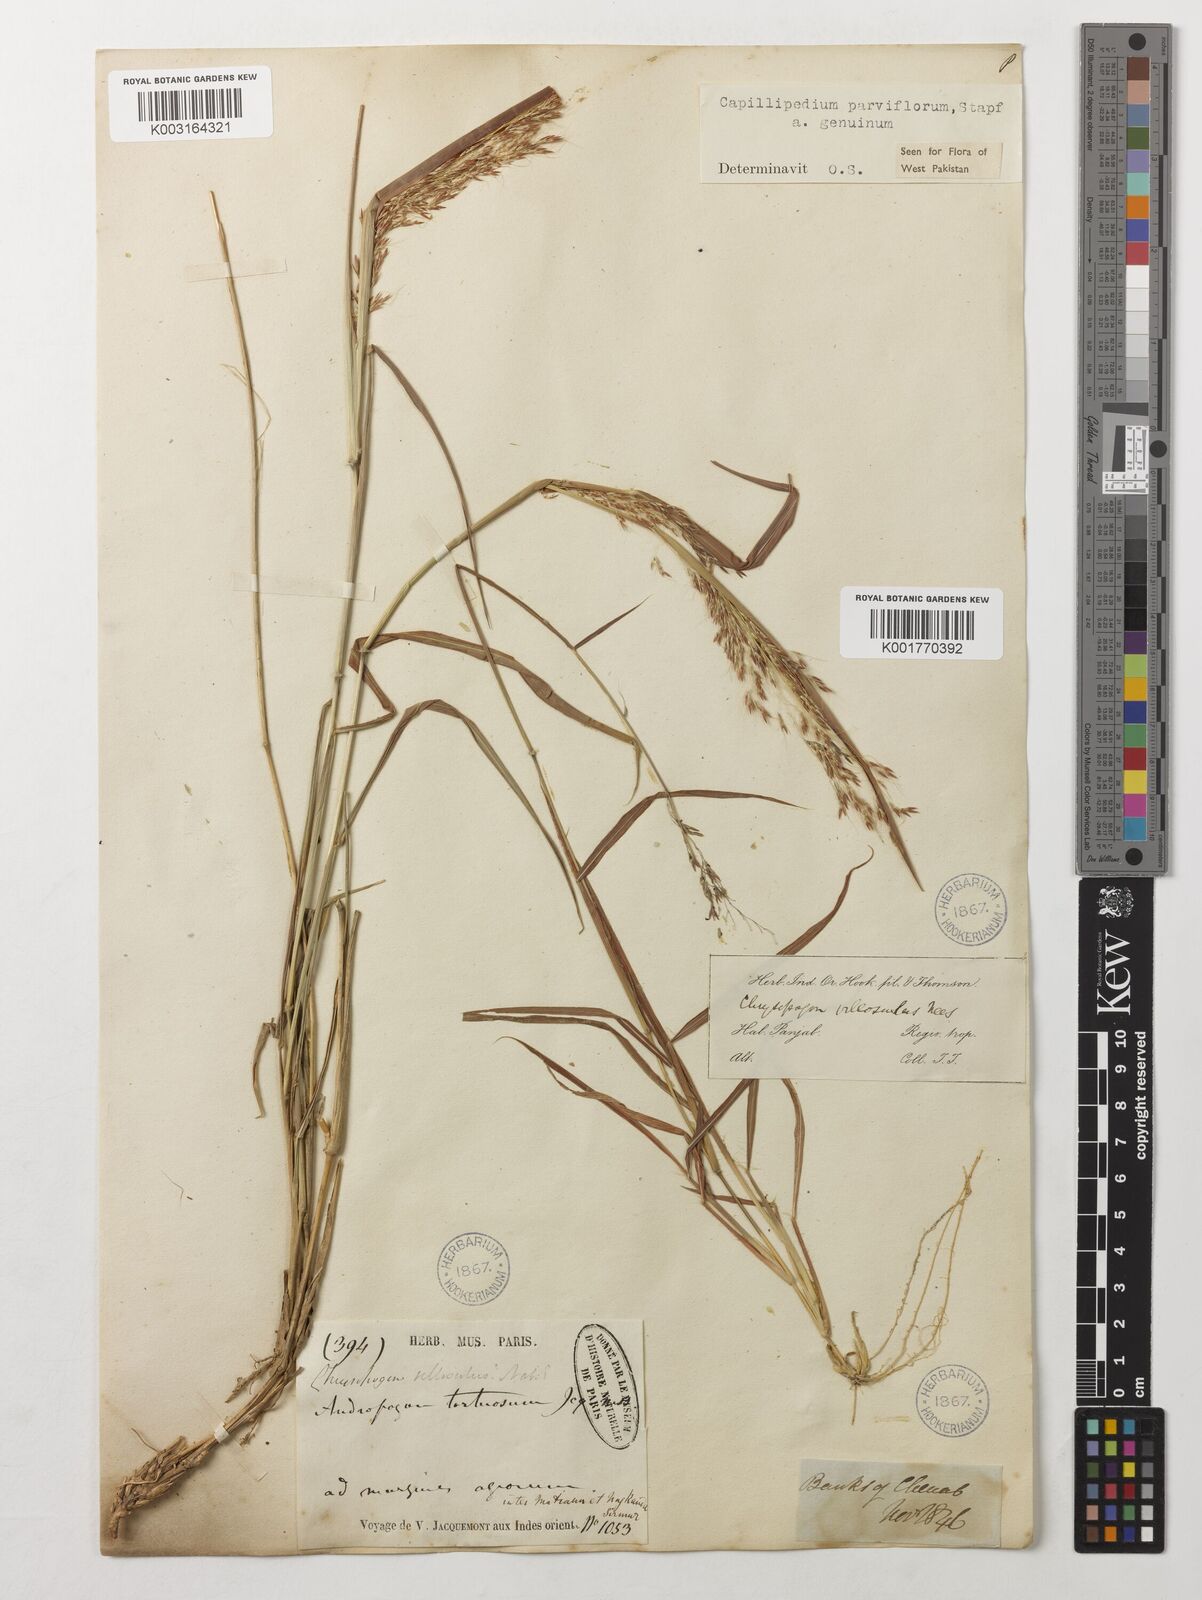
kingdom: Plantae
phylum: Tracheophyta
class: Liliopsida
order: Poales
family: Poaceae
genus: Capillipedium
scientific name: Capillipedium assimile
